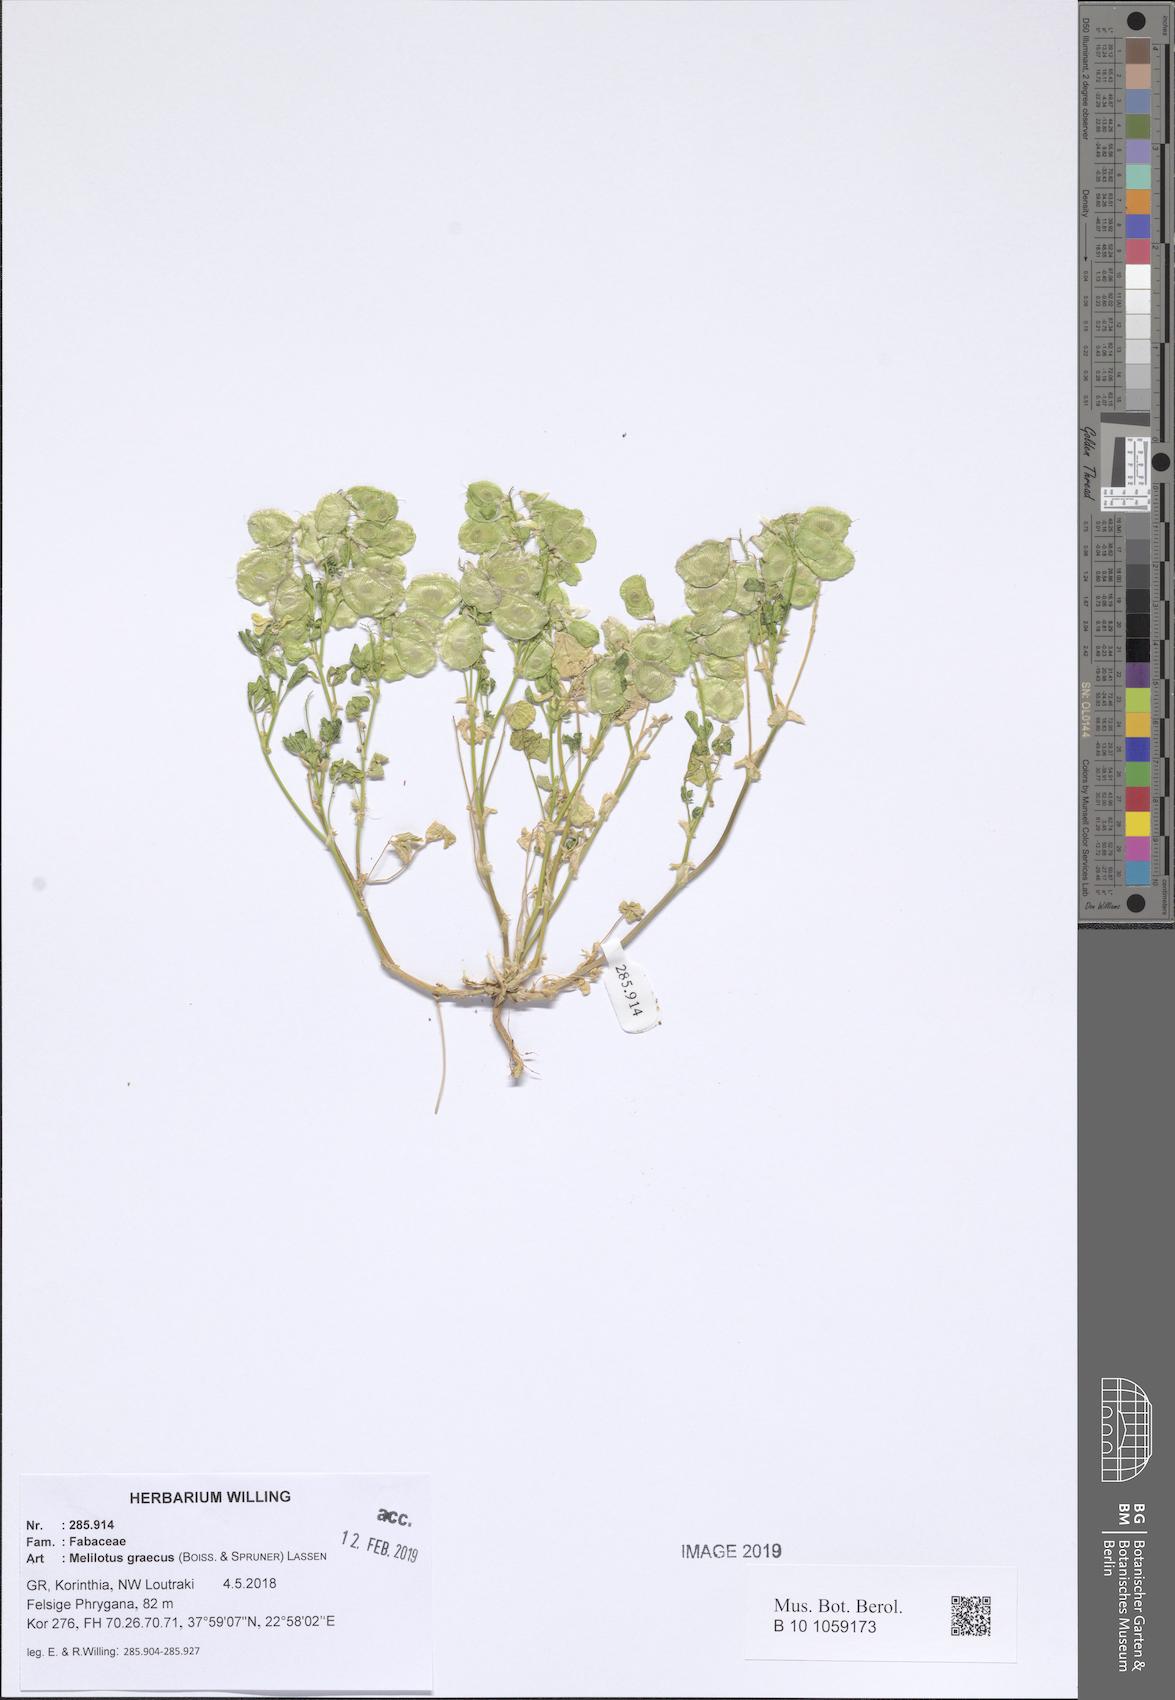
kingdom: Plantae
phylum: Tracheophyta
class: Magnoliopsida
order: Fabales
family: Fabaceae
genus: Trigonella
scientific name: Trigonella graeca
